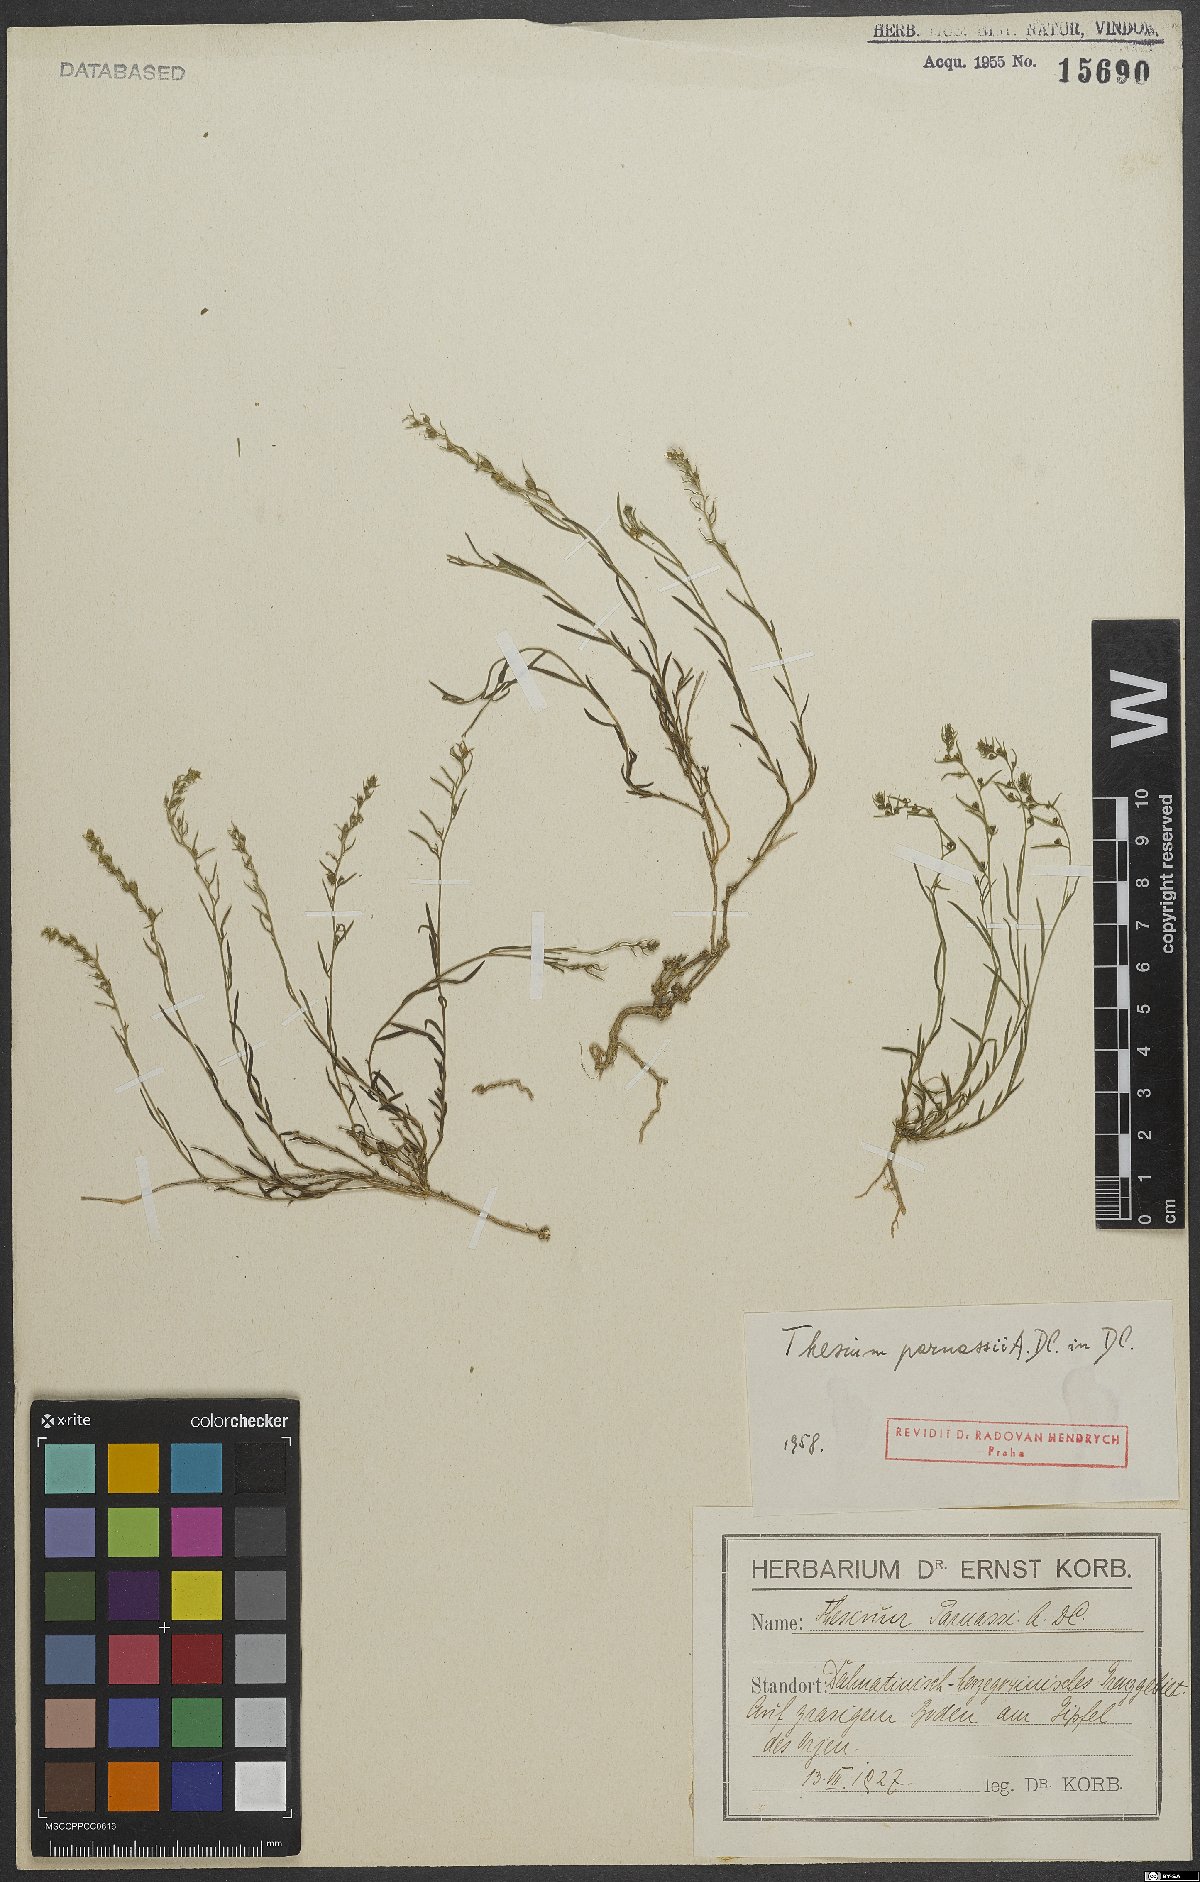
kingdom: Plantae
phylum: Tracheophyta
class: Magnoliopsida
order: Santalales
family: Thesiaceae
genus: Thesium
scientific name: Thesium parnassi
